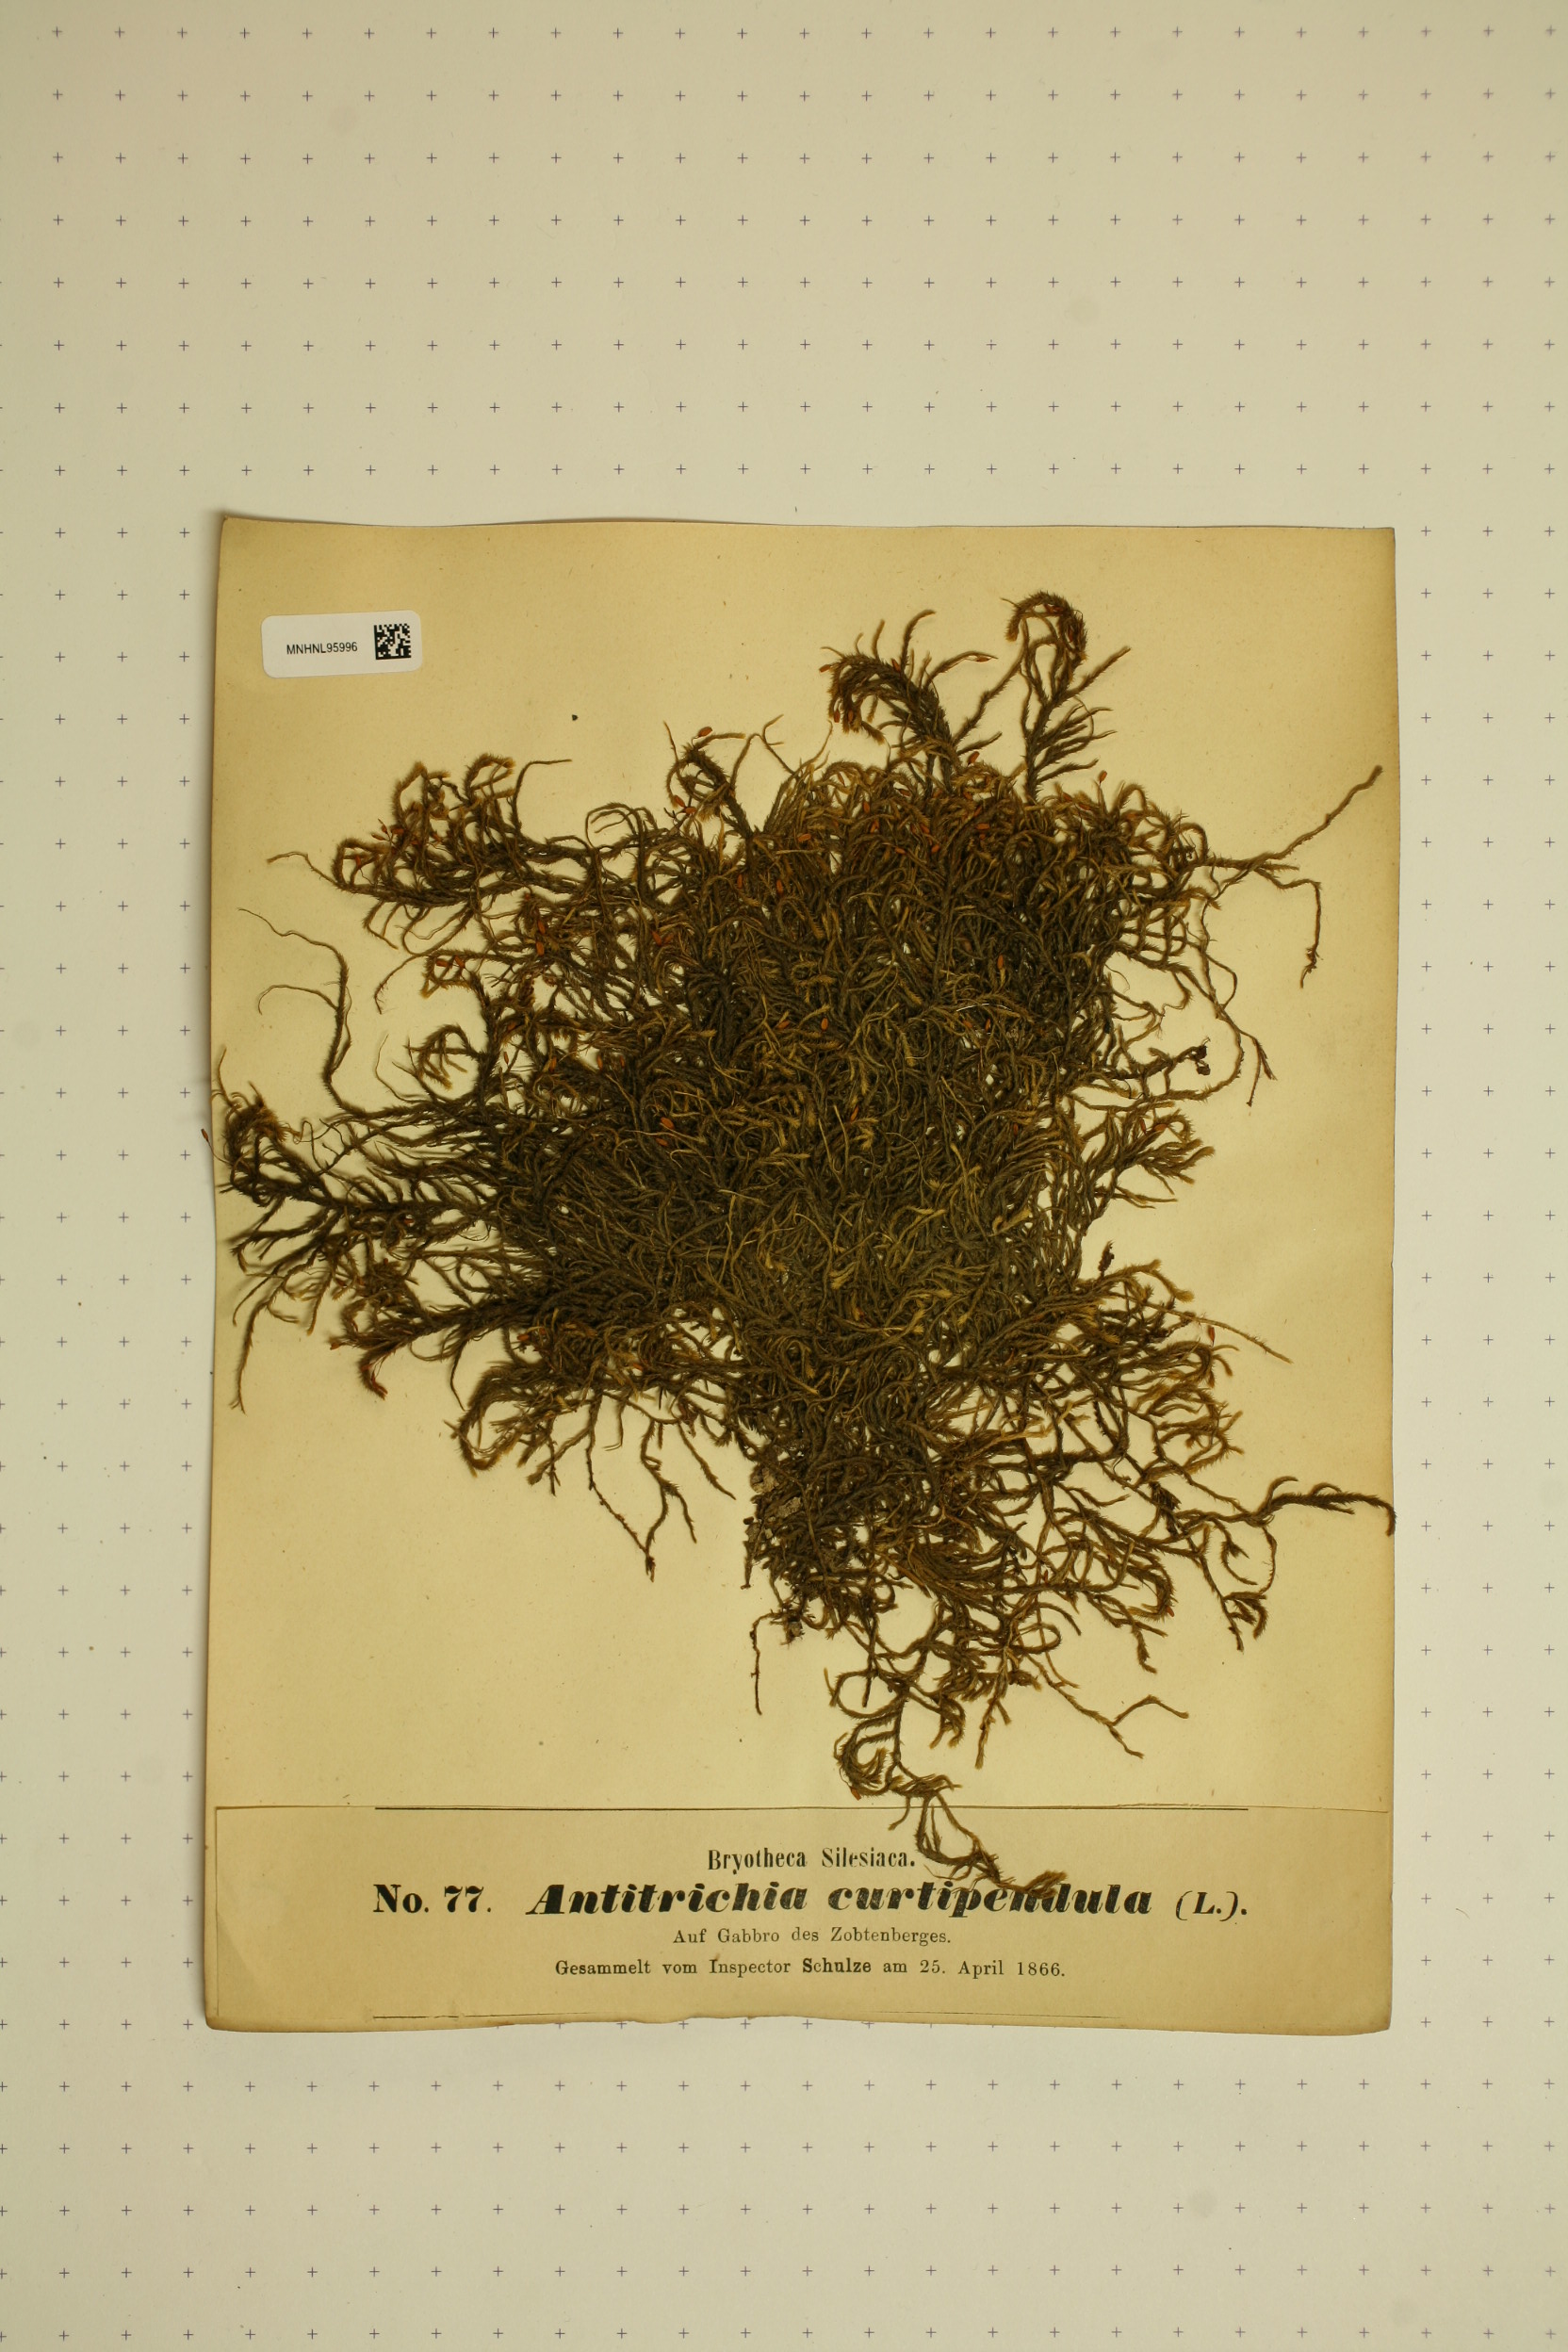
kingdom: Plantae
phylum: Bryophyta
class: Bryopsida
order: Hypnales
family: Antitrichiaceae
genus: Antitrichia
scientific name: Antitrichia curtipendula
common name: Pendulous wing-moss
